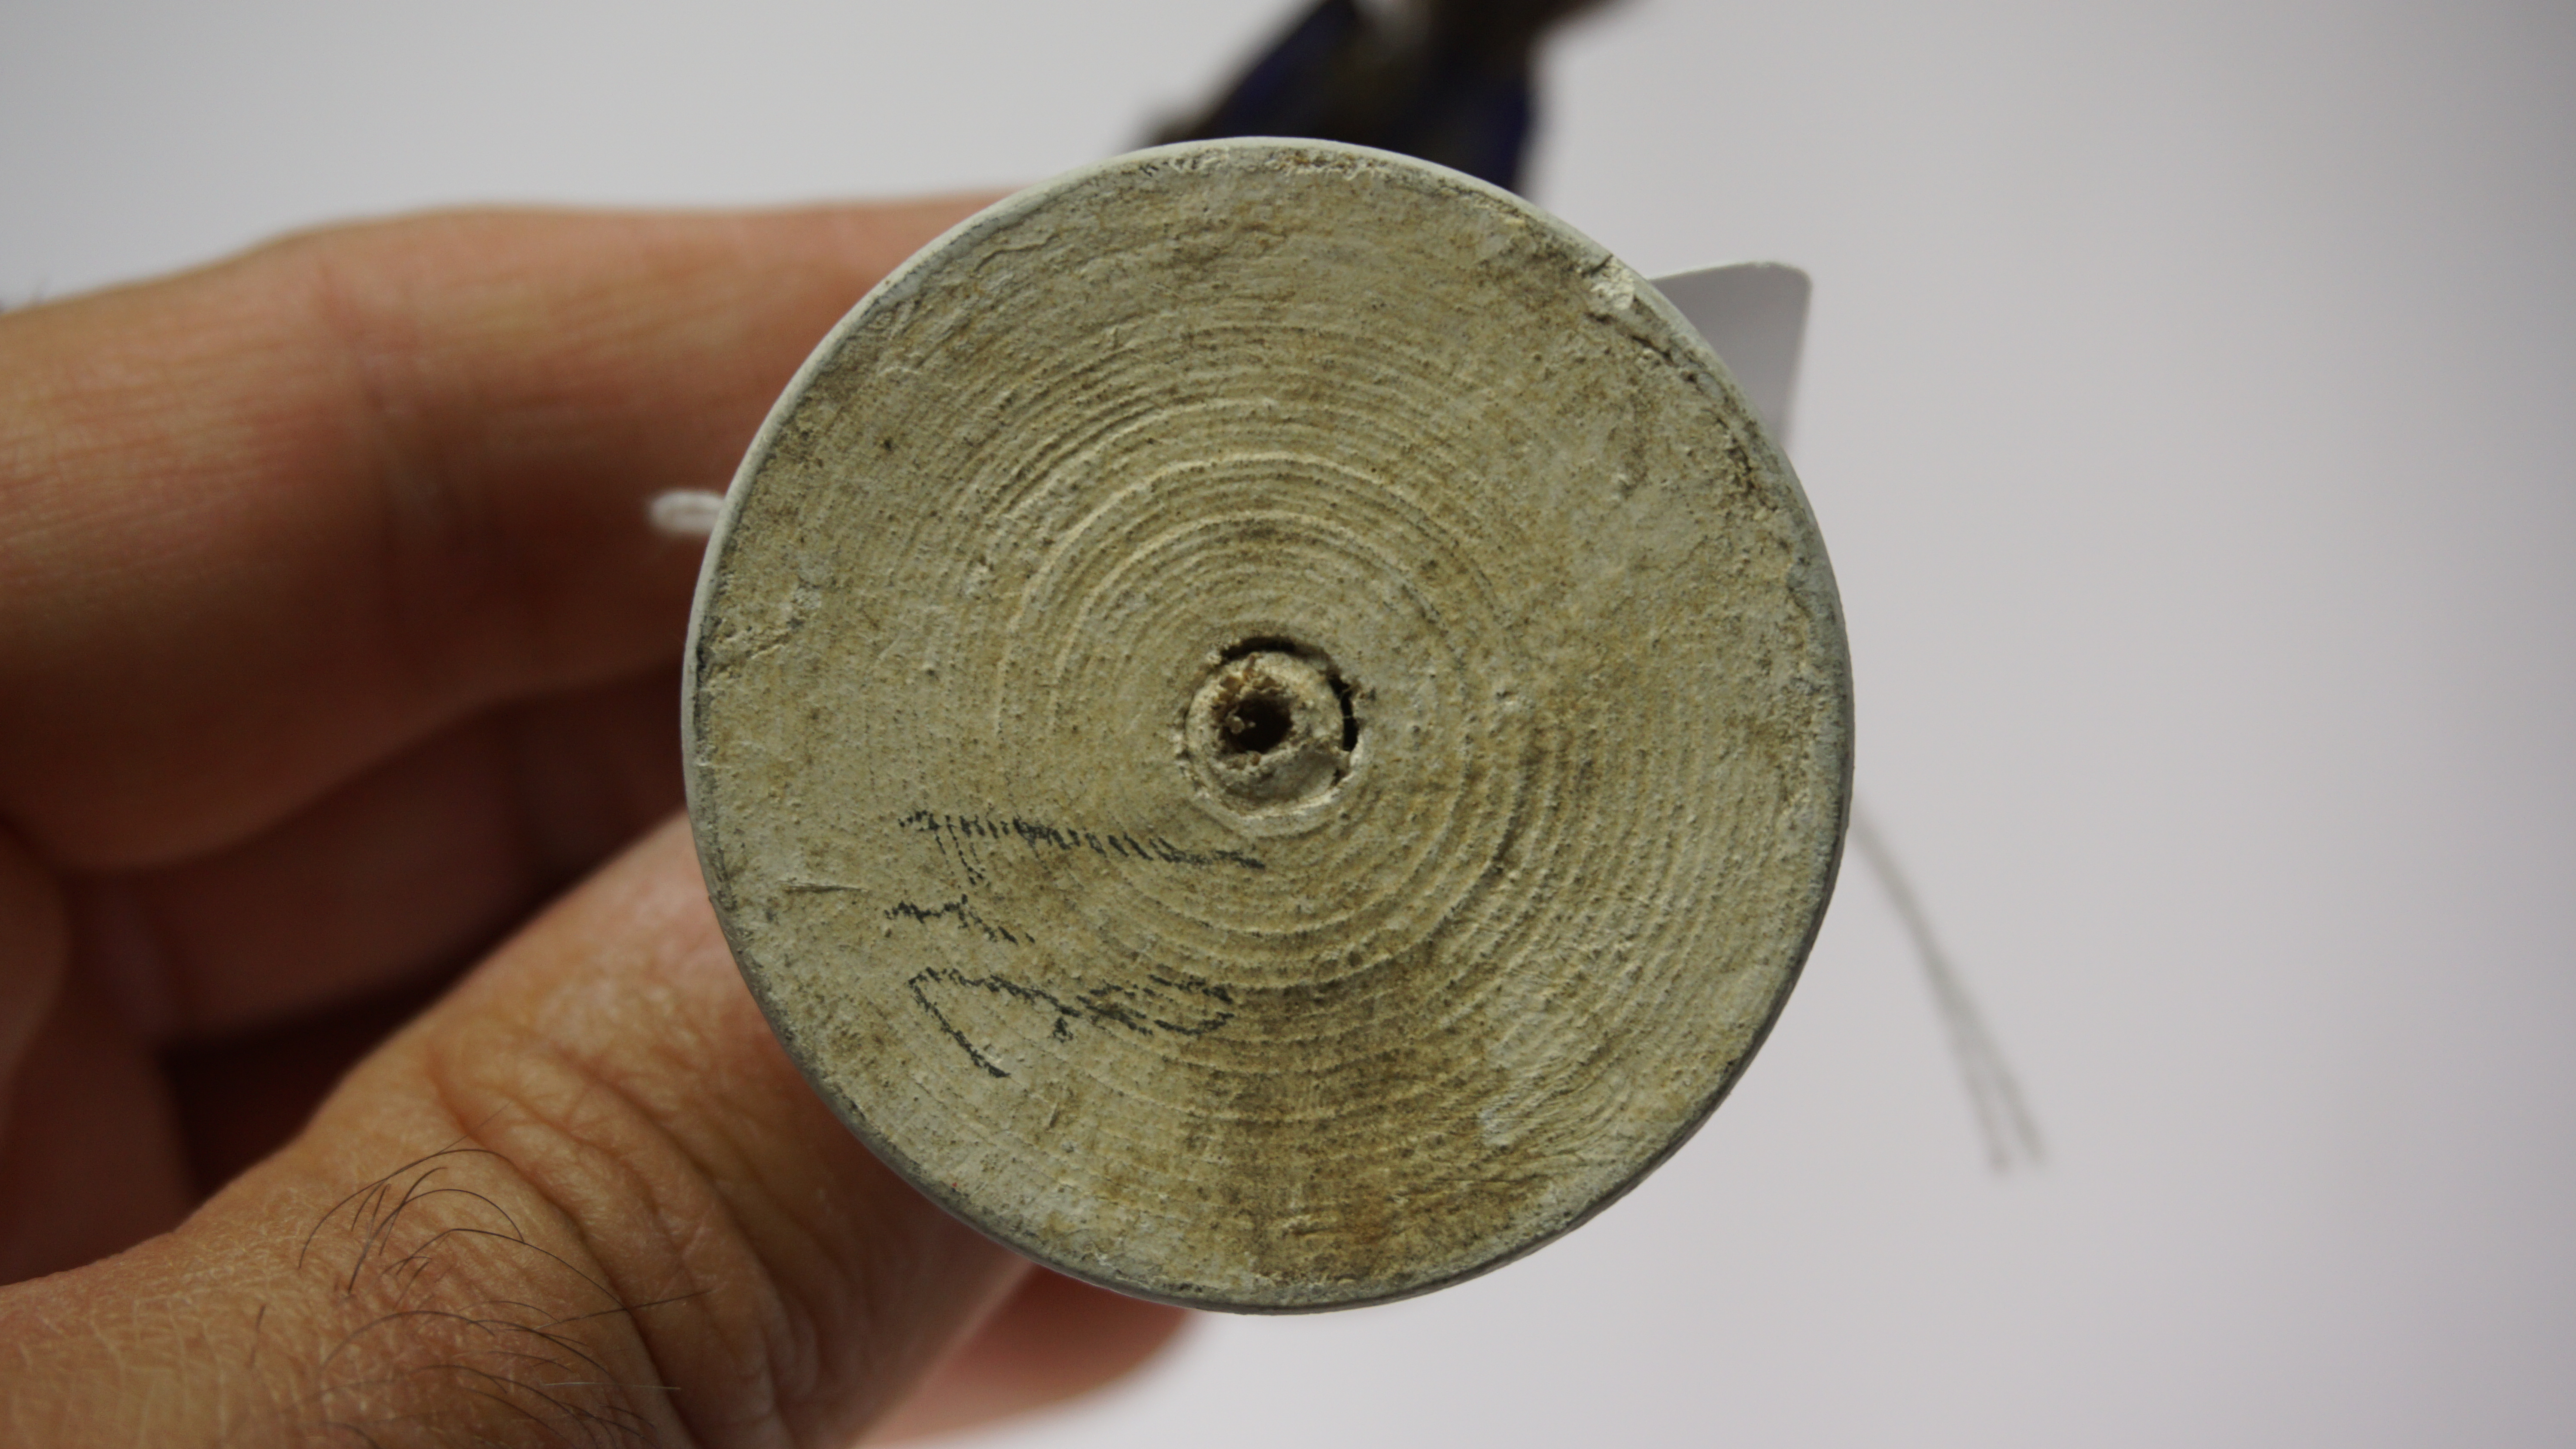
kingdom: Animalia
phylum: Chordata
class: Aves
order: Passeriformes
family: Maluridae
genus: Malurus
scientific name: Malurus splendens
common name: Splendid fairywren
